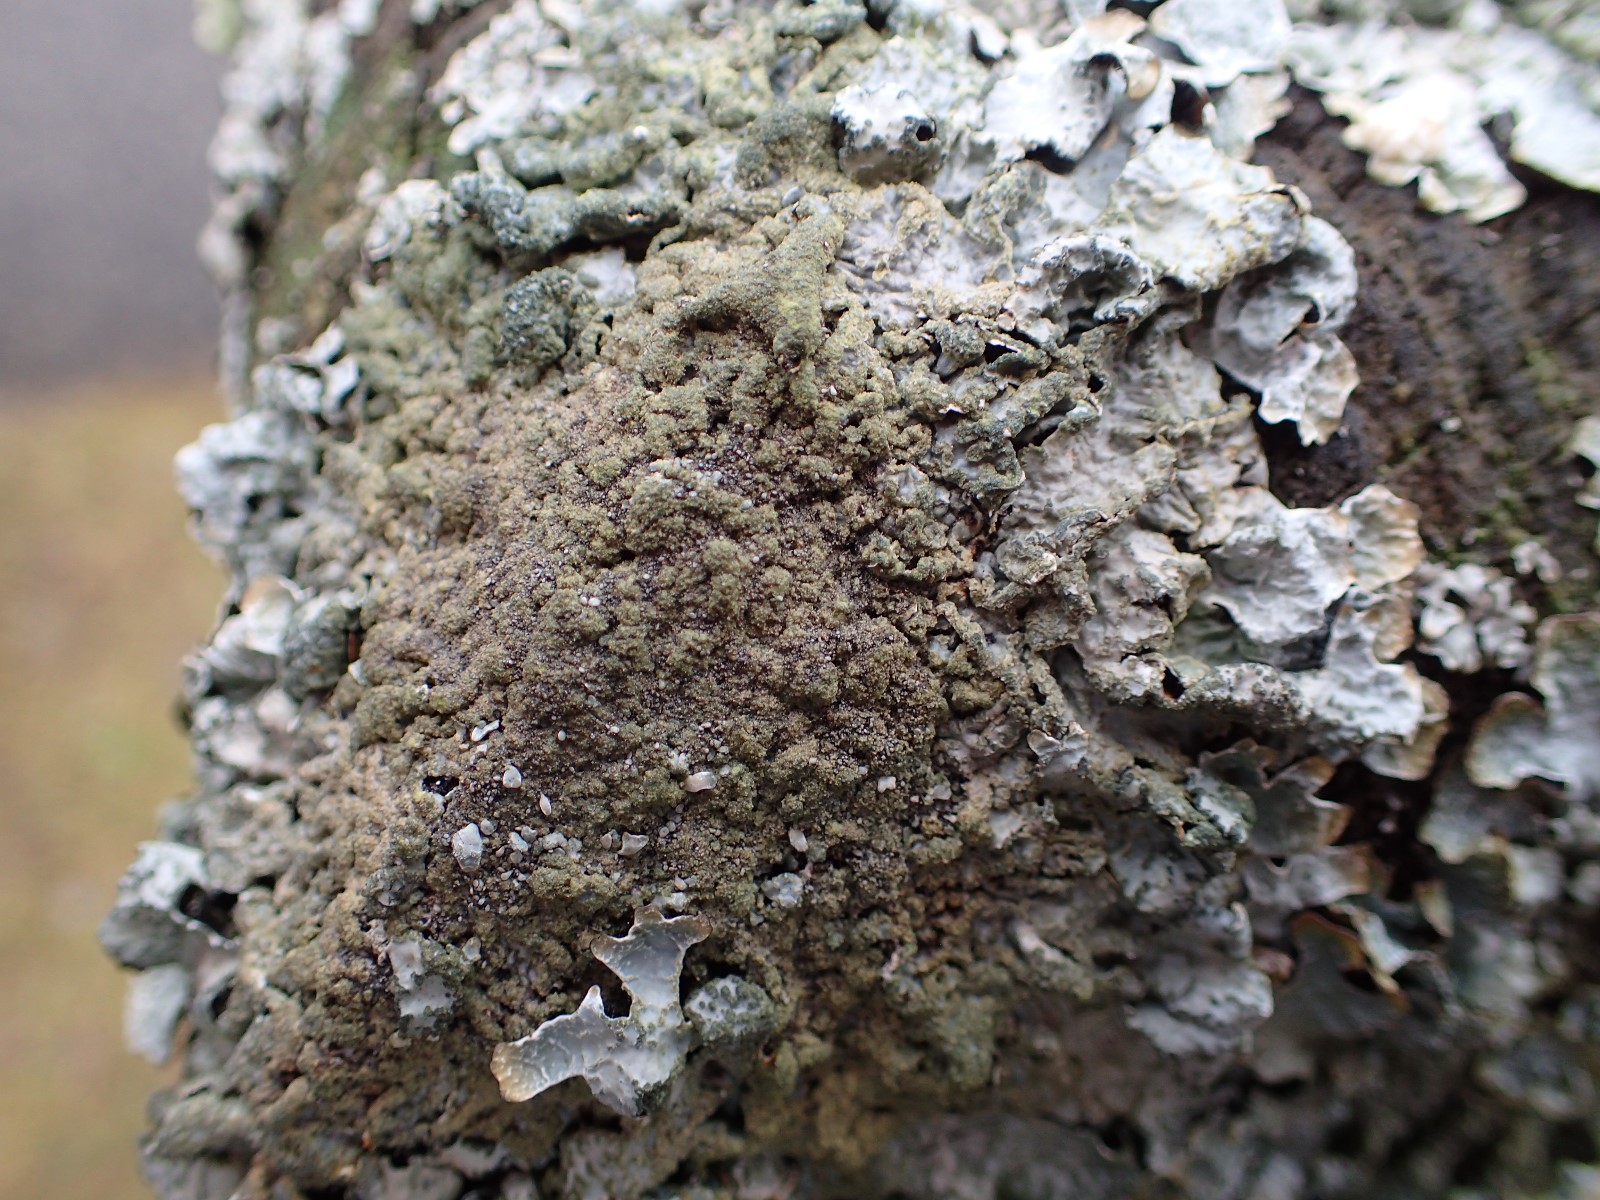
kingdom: Fungi
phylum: Ascomycota
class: Lecanoromycetes
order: Lecanorales
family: Parmeliaceae
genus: Parmelia
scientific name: Parmelia sulcata
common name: rynket skållav
